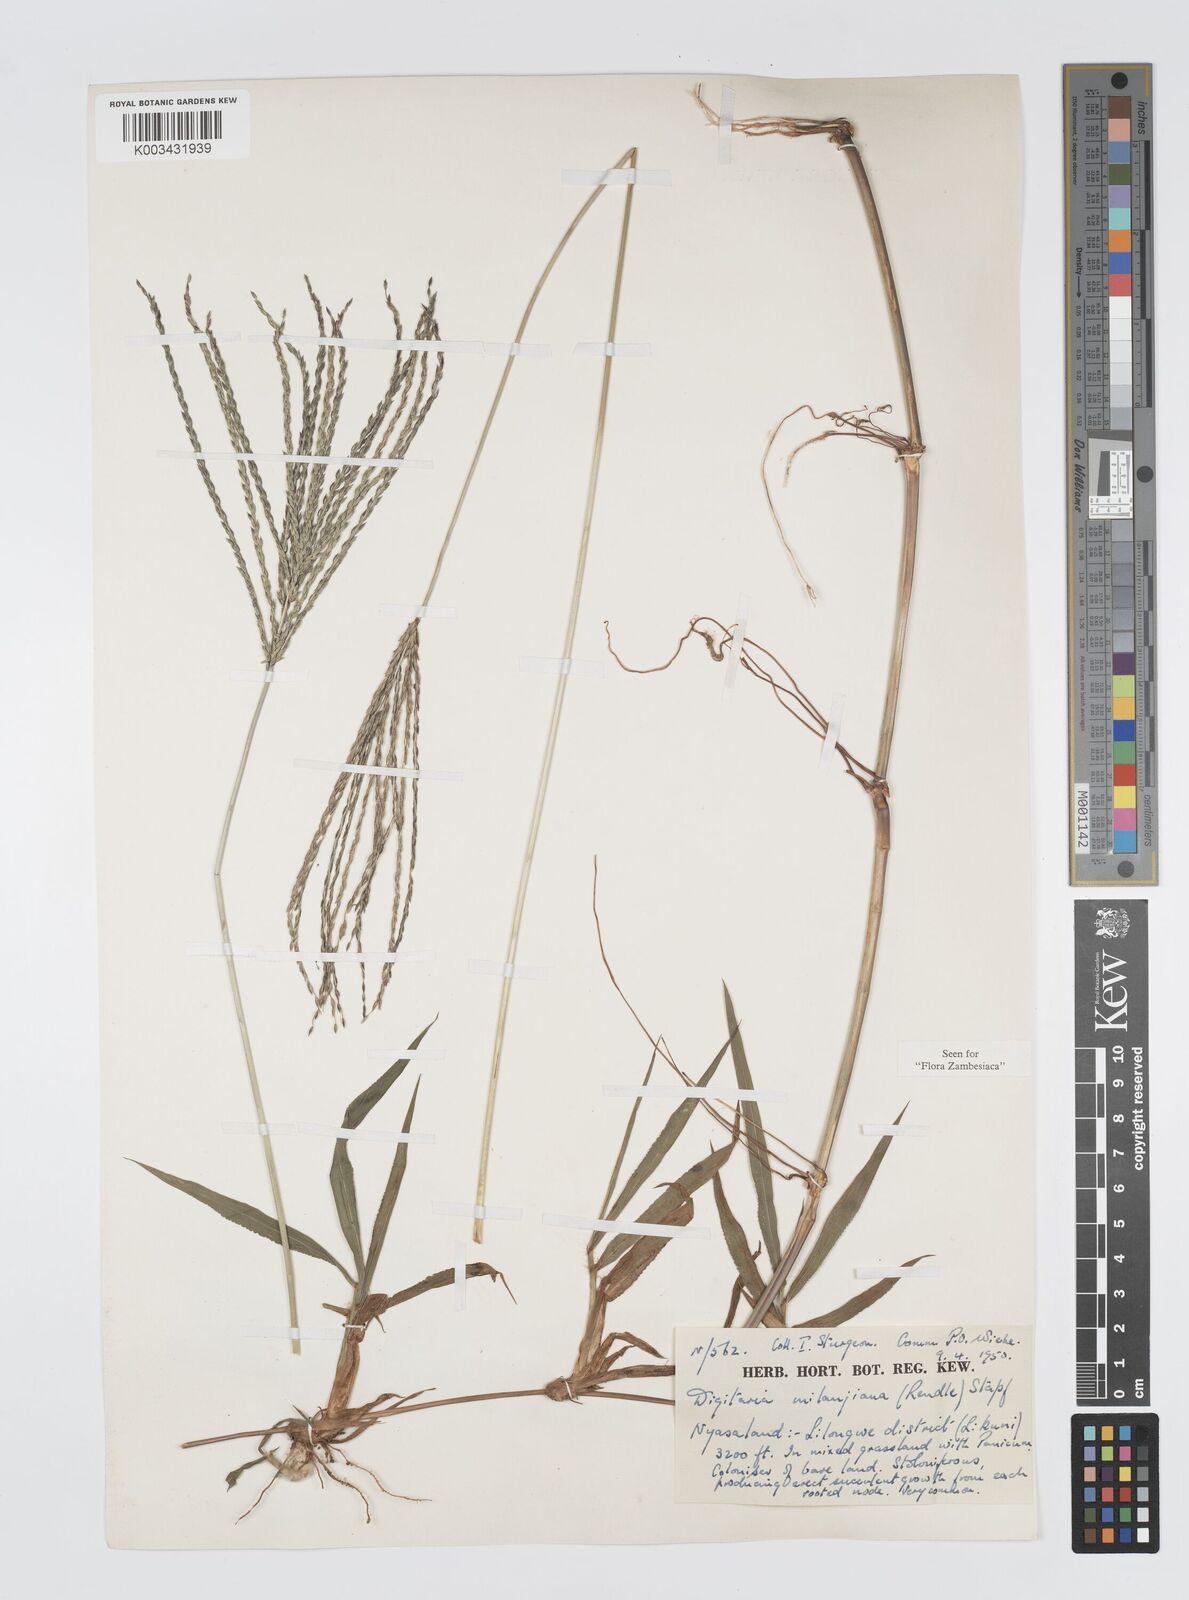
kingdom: Plantae
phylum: Tracheophyta
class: Liliopsida
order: Poales
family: Poaceae
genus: Digitaria
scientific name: Digitaria milanjiana
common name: Madagascar crabgrass
